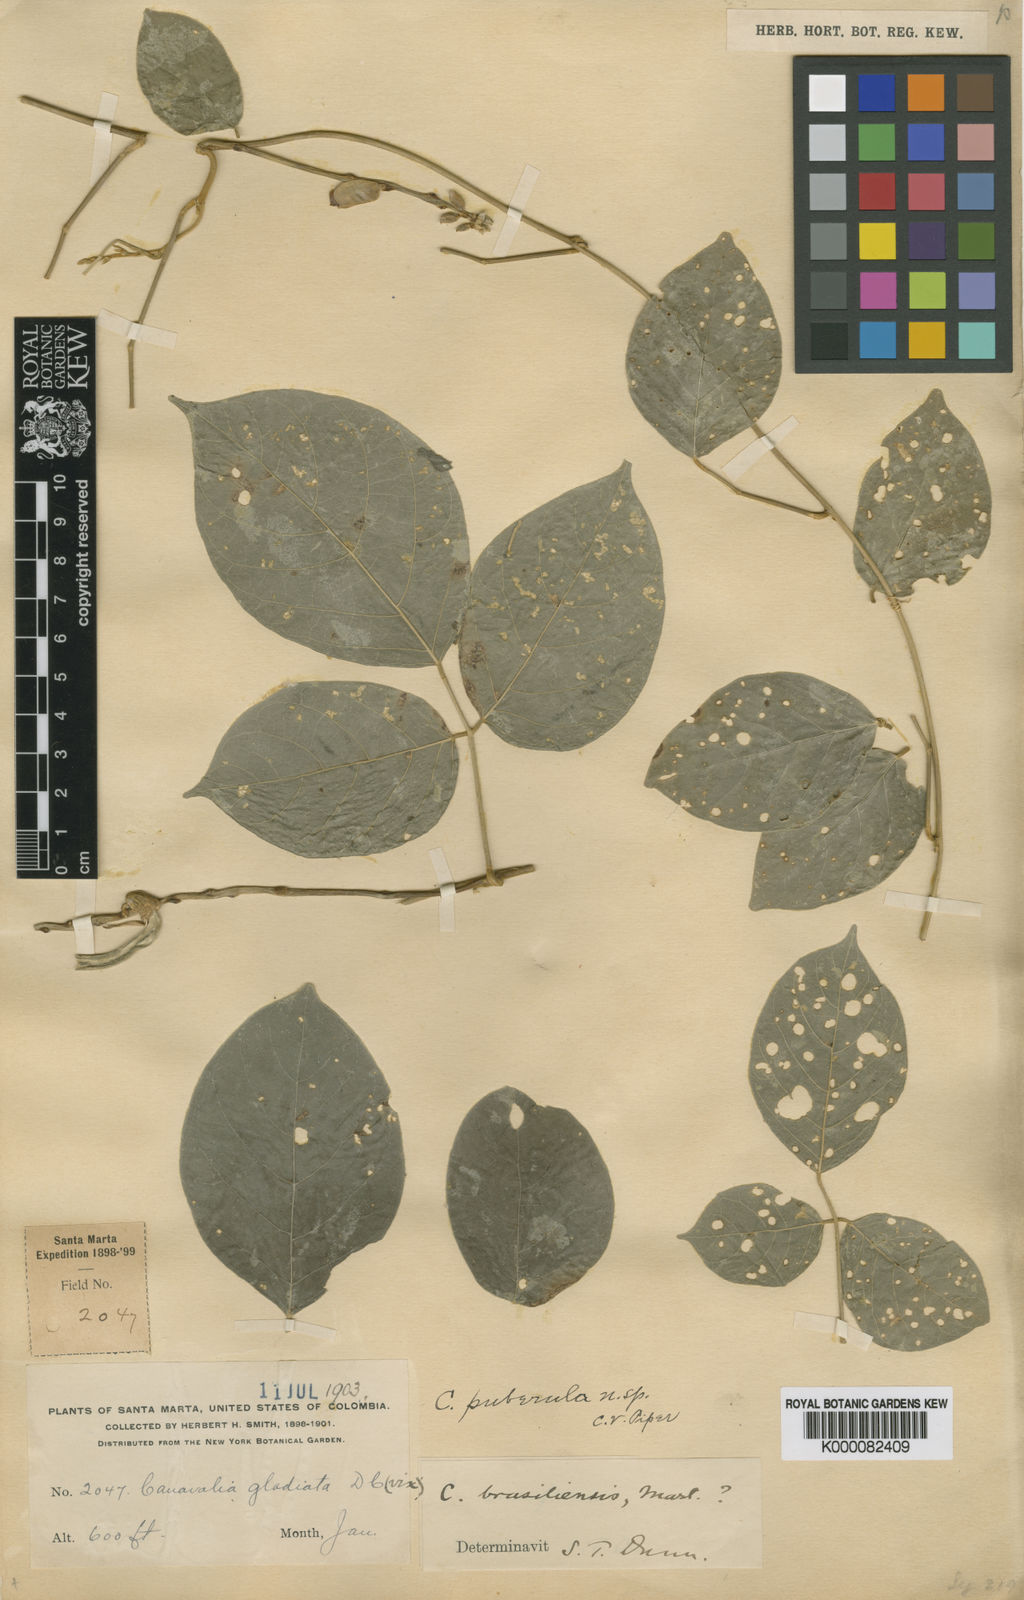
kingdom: Plantae
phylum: Tracheophyta
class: Magnoliopsida
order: Fabales
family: Fabaceae
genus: Canavalia
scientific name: Canavalia gladiata
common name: Scimitar-bean
